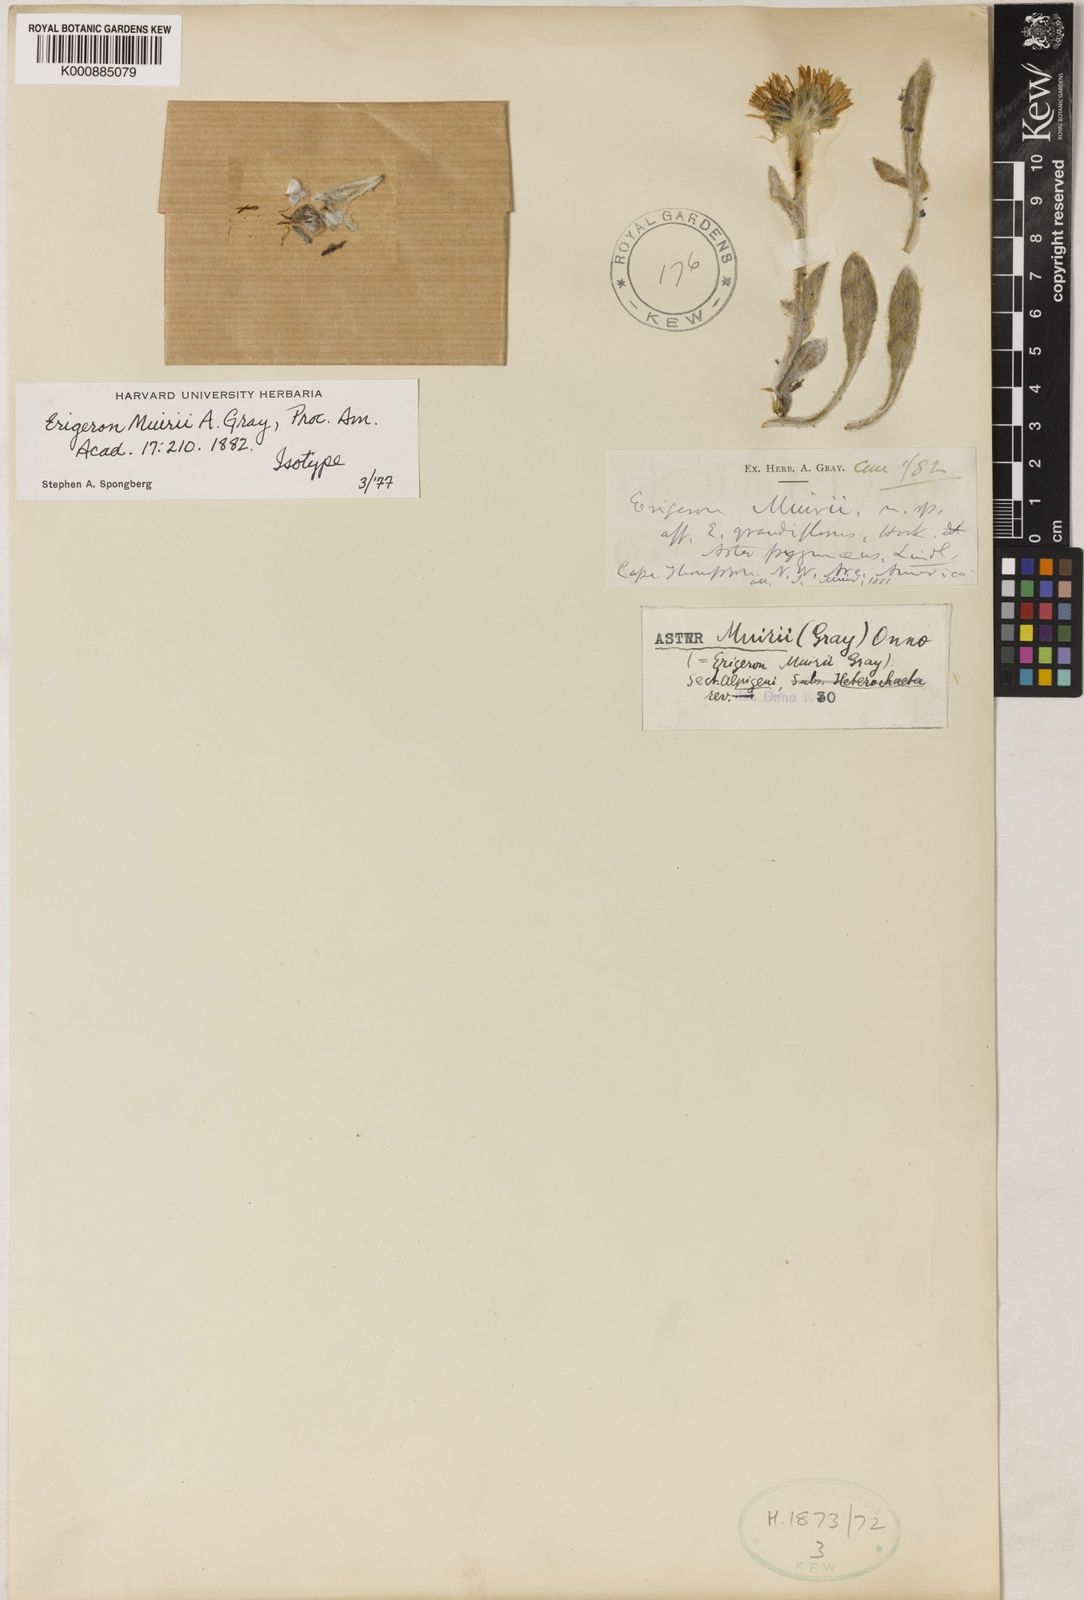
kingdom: Plantae
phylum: Tracheophyta
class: Magnoliopsida
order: Asterales
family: Asteraceae
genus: Erigeron
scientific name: Erigeron
